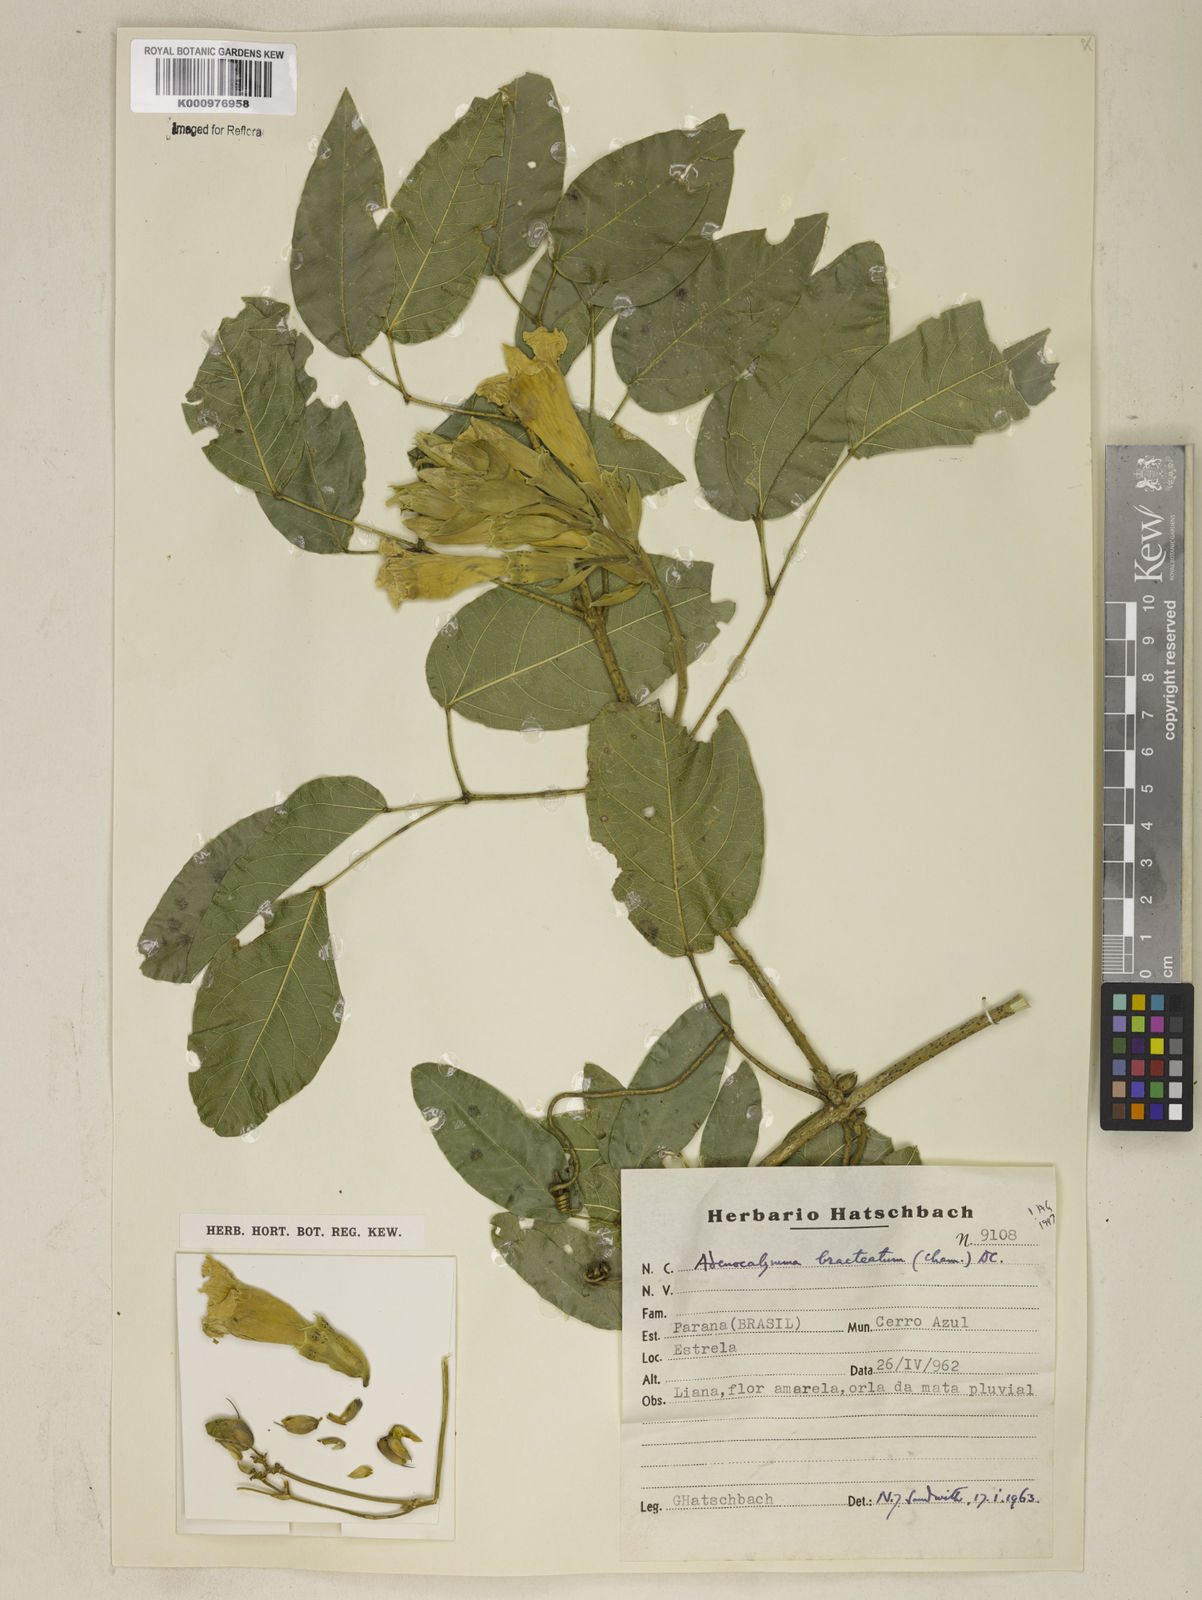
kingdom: Plantae
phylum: Tracheophyta
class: Magnoliopsida
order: Lamiales
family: Bignoniaceae
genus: Adenocalymma
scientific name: Adenocalymma bracteatum
